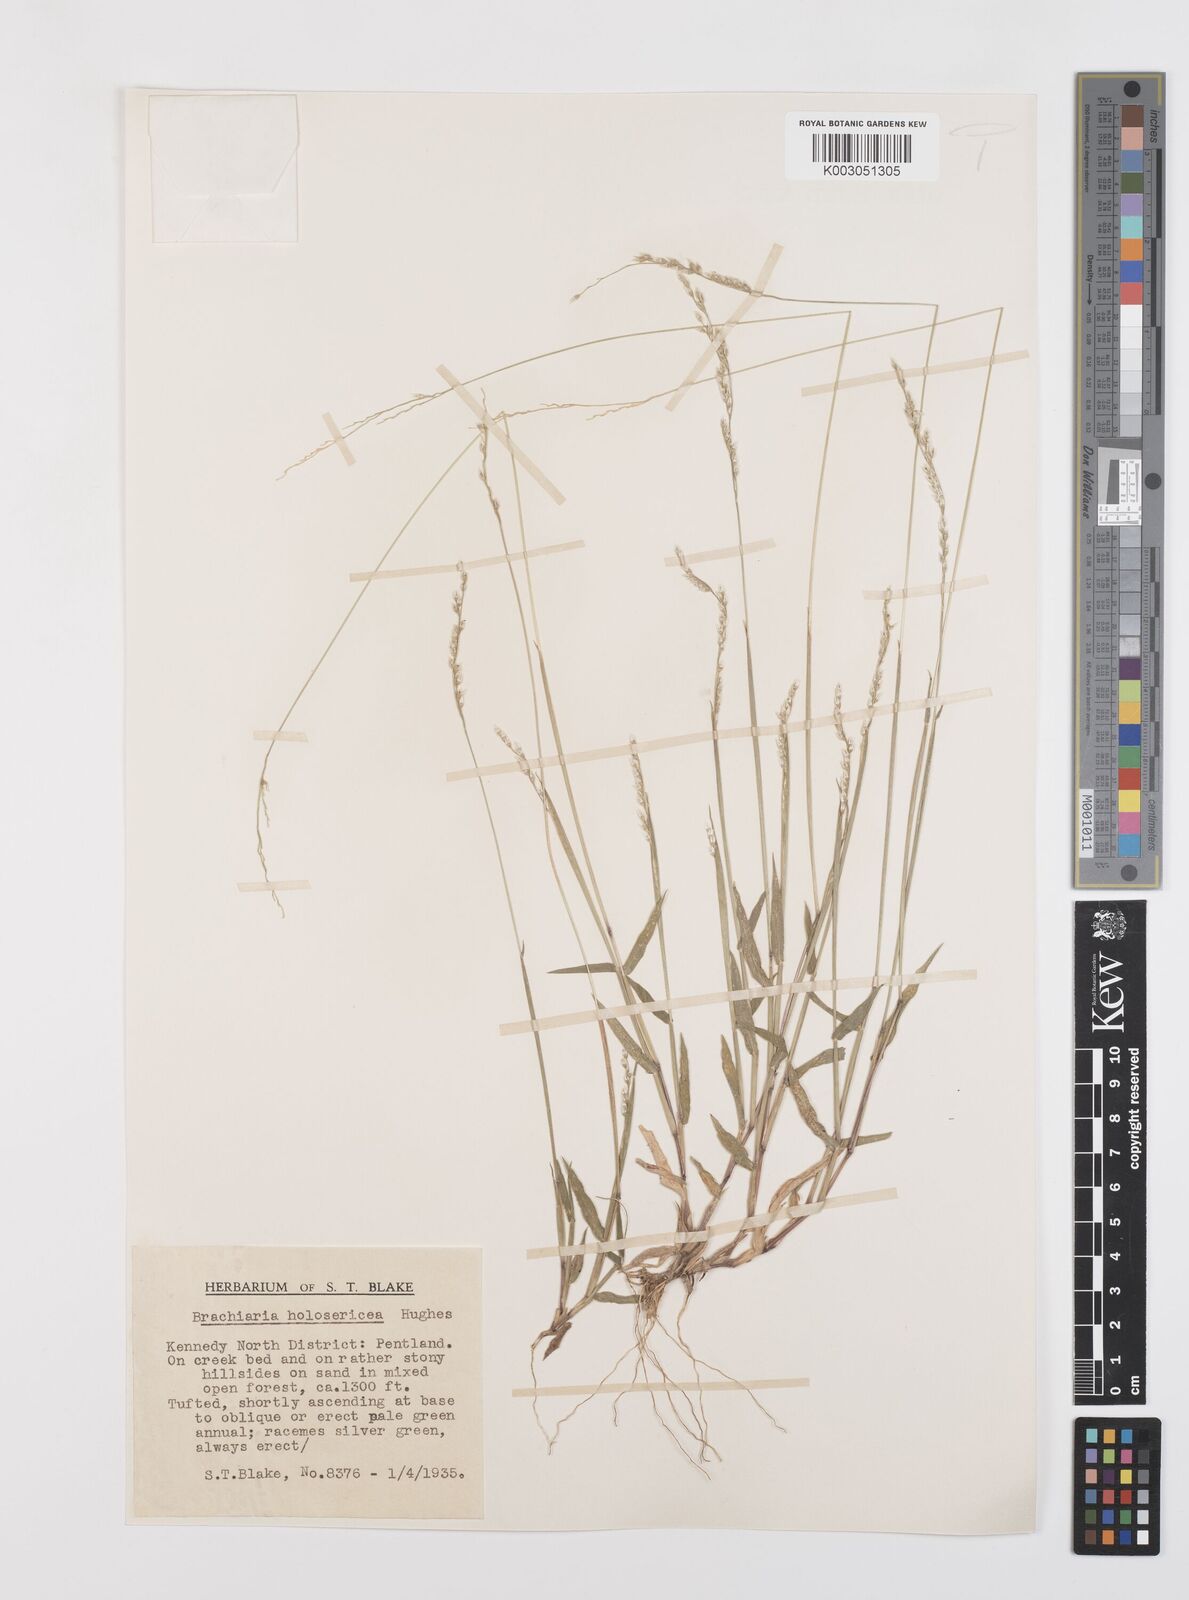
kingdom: Plantae
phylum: Tracheophyta
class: Liliopsida
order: Poales
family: Poaceae
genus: Urochloa
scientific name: Urochloa holosericea
